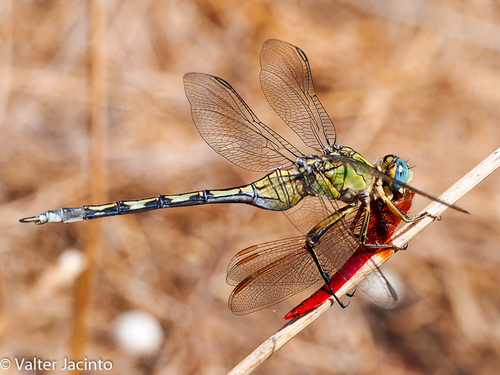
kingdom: Animalia
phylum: Arthropoda
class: Insecta
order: Odonata
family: Libellulidae
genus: Orthetrum
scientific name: Orthetrum trinacria
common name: Long skimmer
